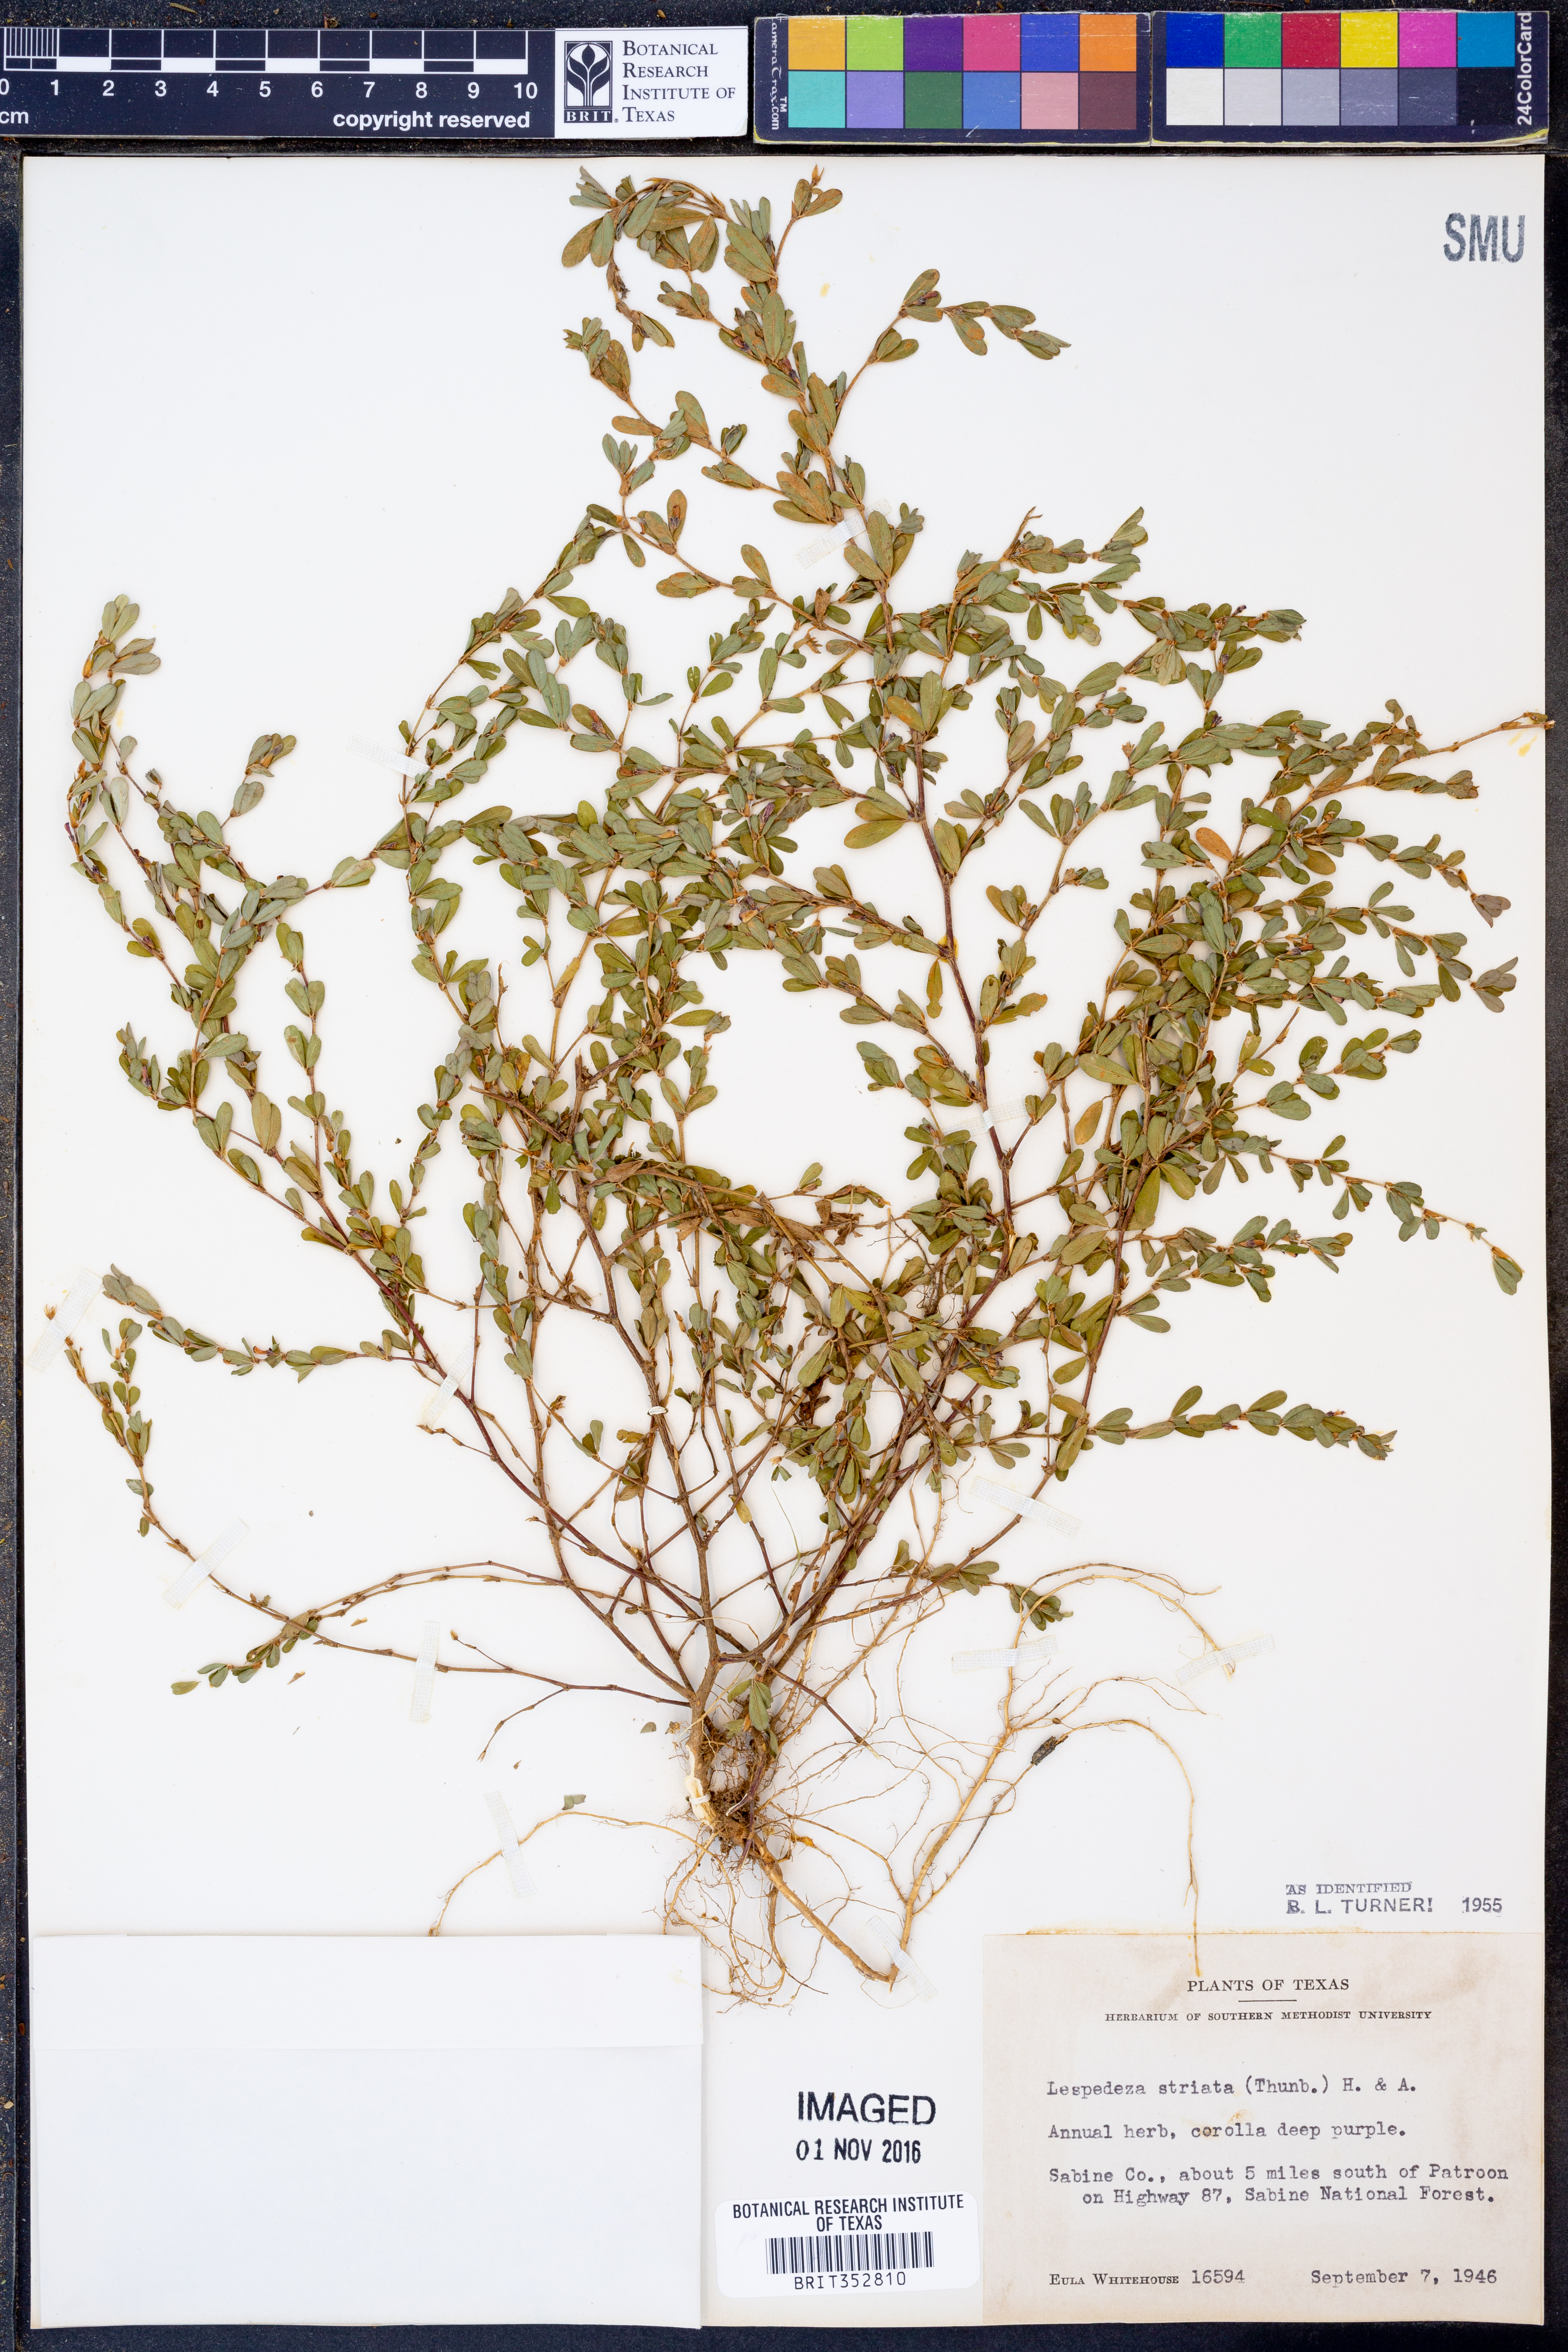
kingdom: Plantae
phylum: Tracheophyta
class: Magnoliopsida
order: Fabales
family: Fabaceae
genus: Kummerowia
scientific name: Kummerowia striata
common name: Japanese clover
